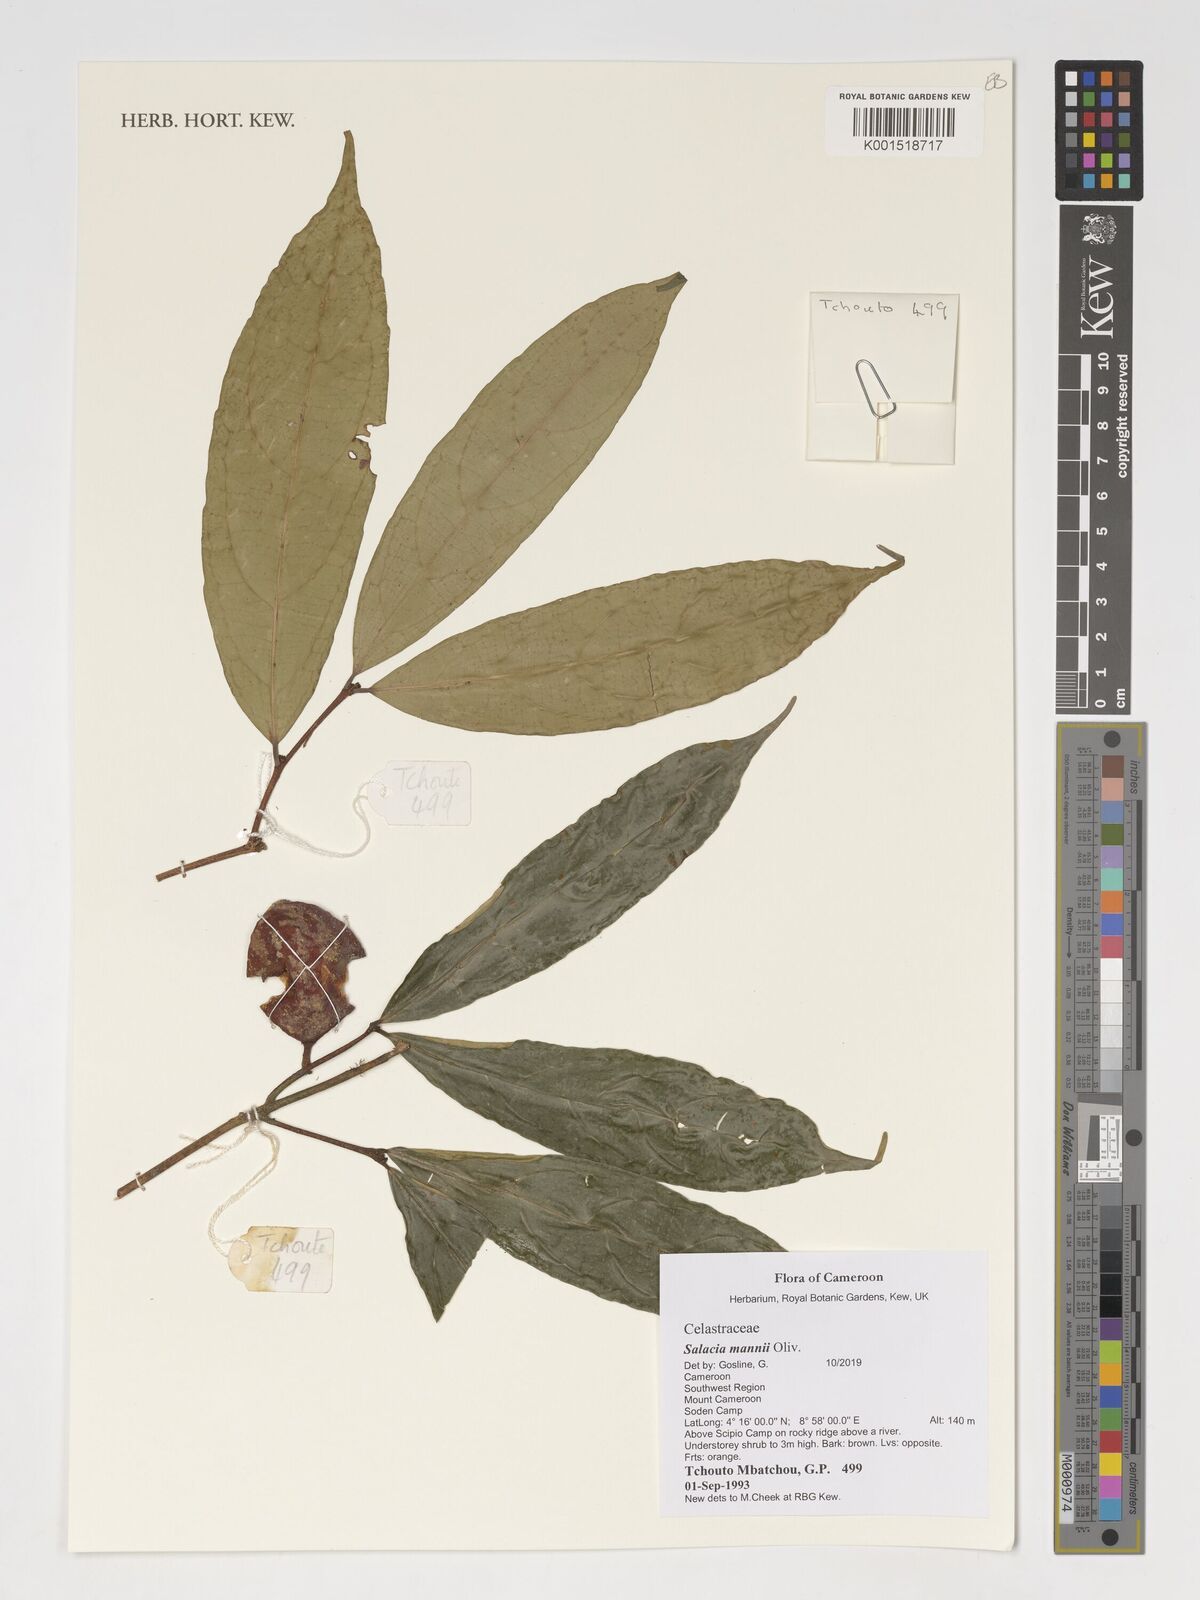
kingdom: Plantae
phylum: Tracheophyta
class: Magnoliopsida
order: Celastrales
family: Celastraceae
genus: Salacia
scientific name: Salacia mannii
